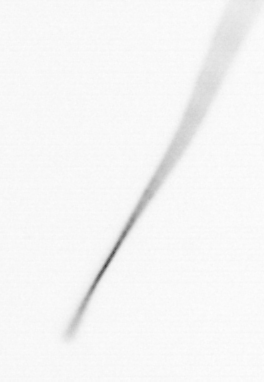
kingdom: Chromista
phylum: Ochrophyta
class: Bacillariophyceae
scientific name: Bacillariophyceae
